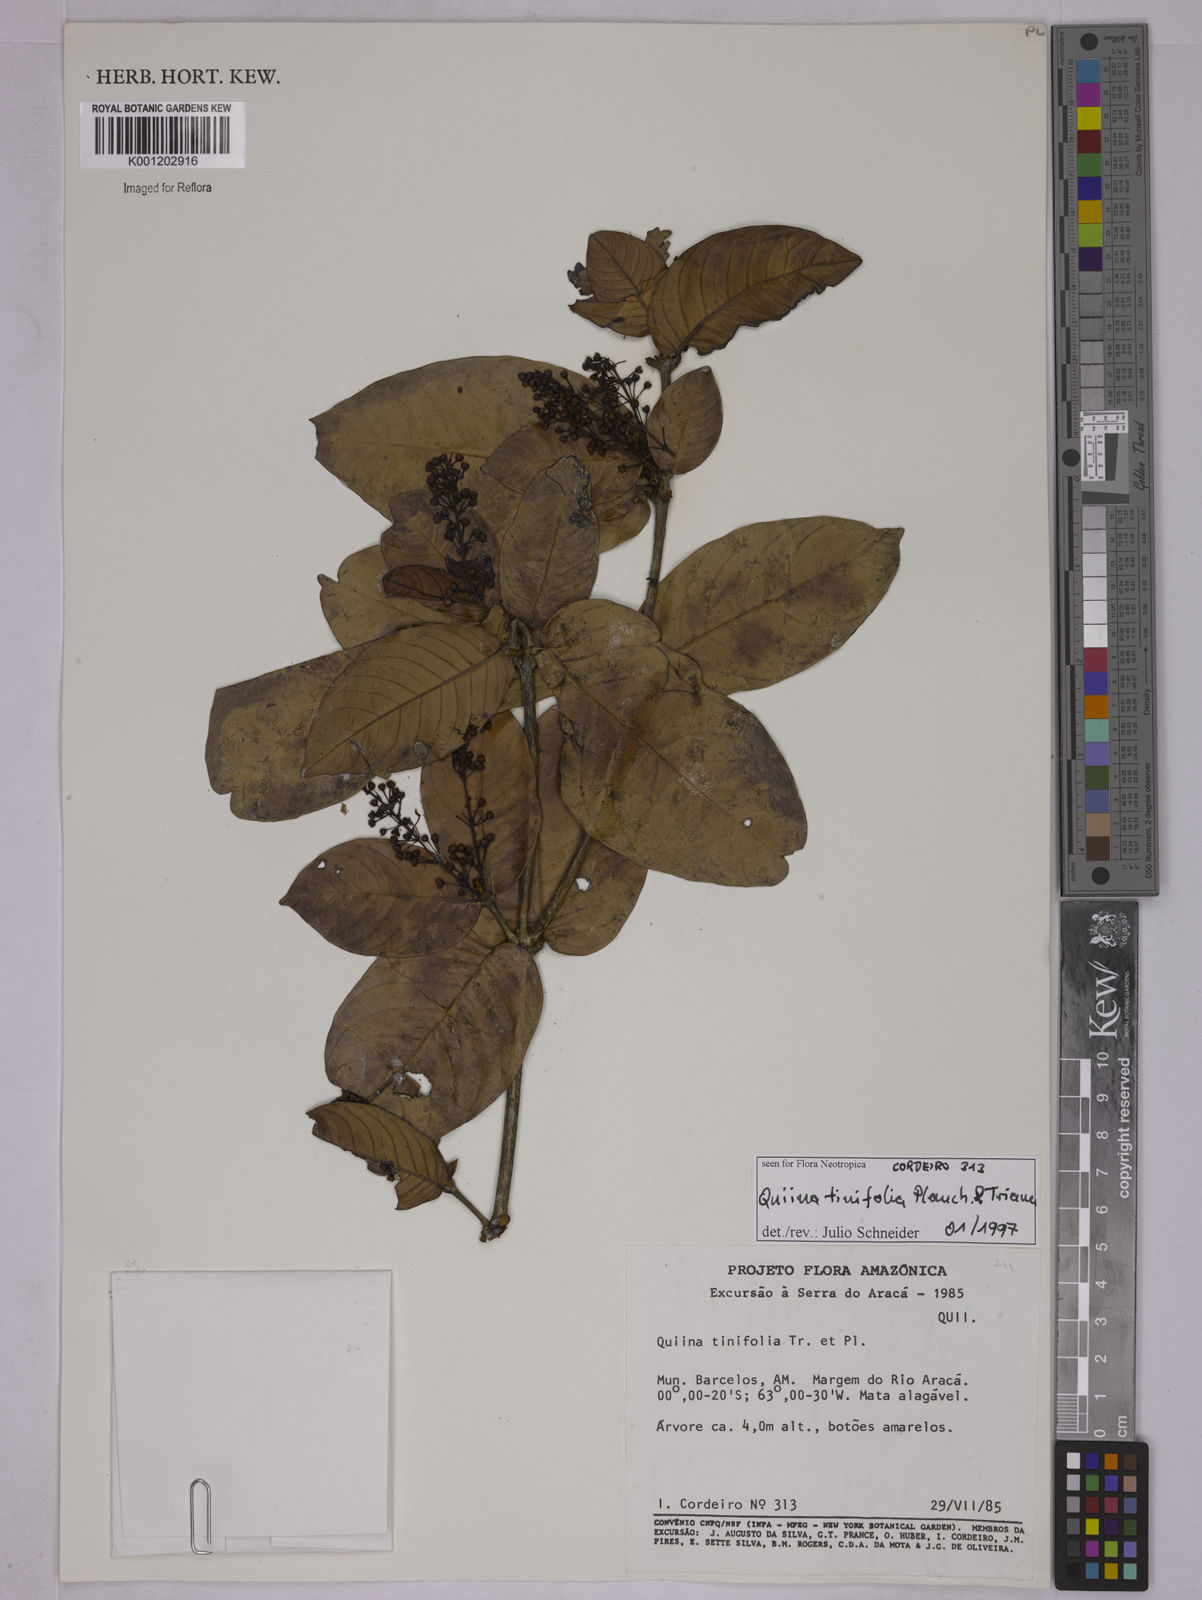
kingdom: Plantae
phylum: Tracheophyta
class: Magnoliopsida
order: Malpighiales
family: Quiinaceae
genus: Quiina
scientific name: Quiina tinifolia
